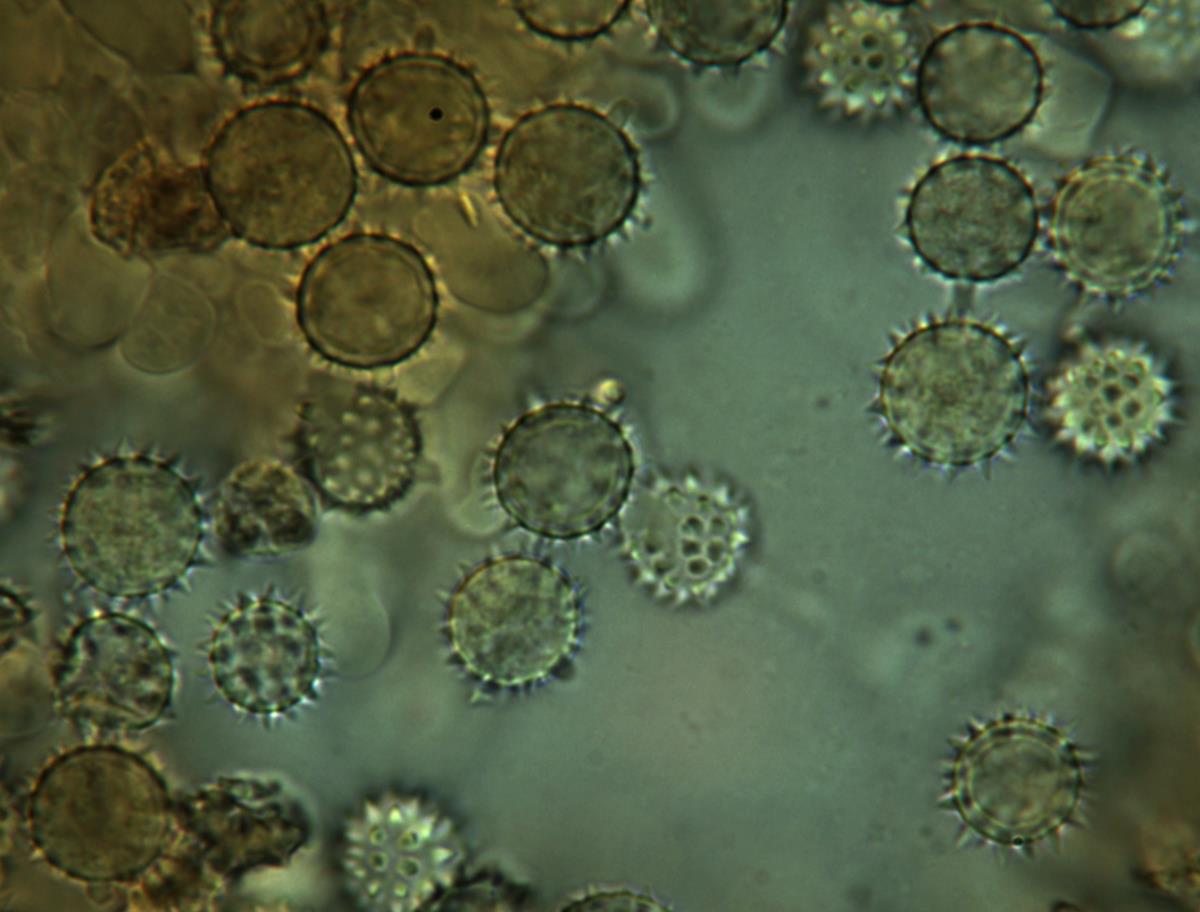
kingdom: Fungi
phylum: Basidiomycota
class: Agaricomycetes
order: Agaricales
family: Hydnangiaceae
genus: Hydnangium
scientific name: Hydnangium carneum
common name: Flesh-pink truffle
